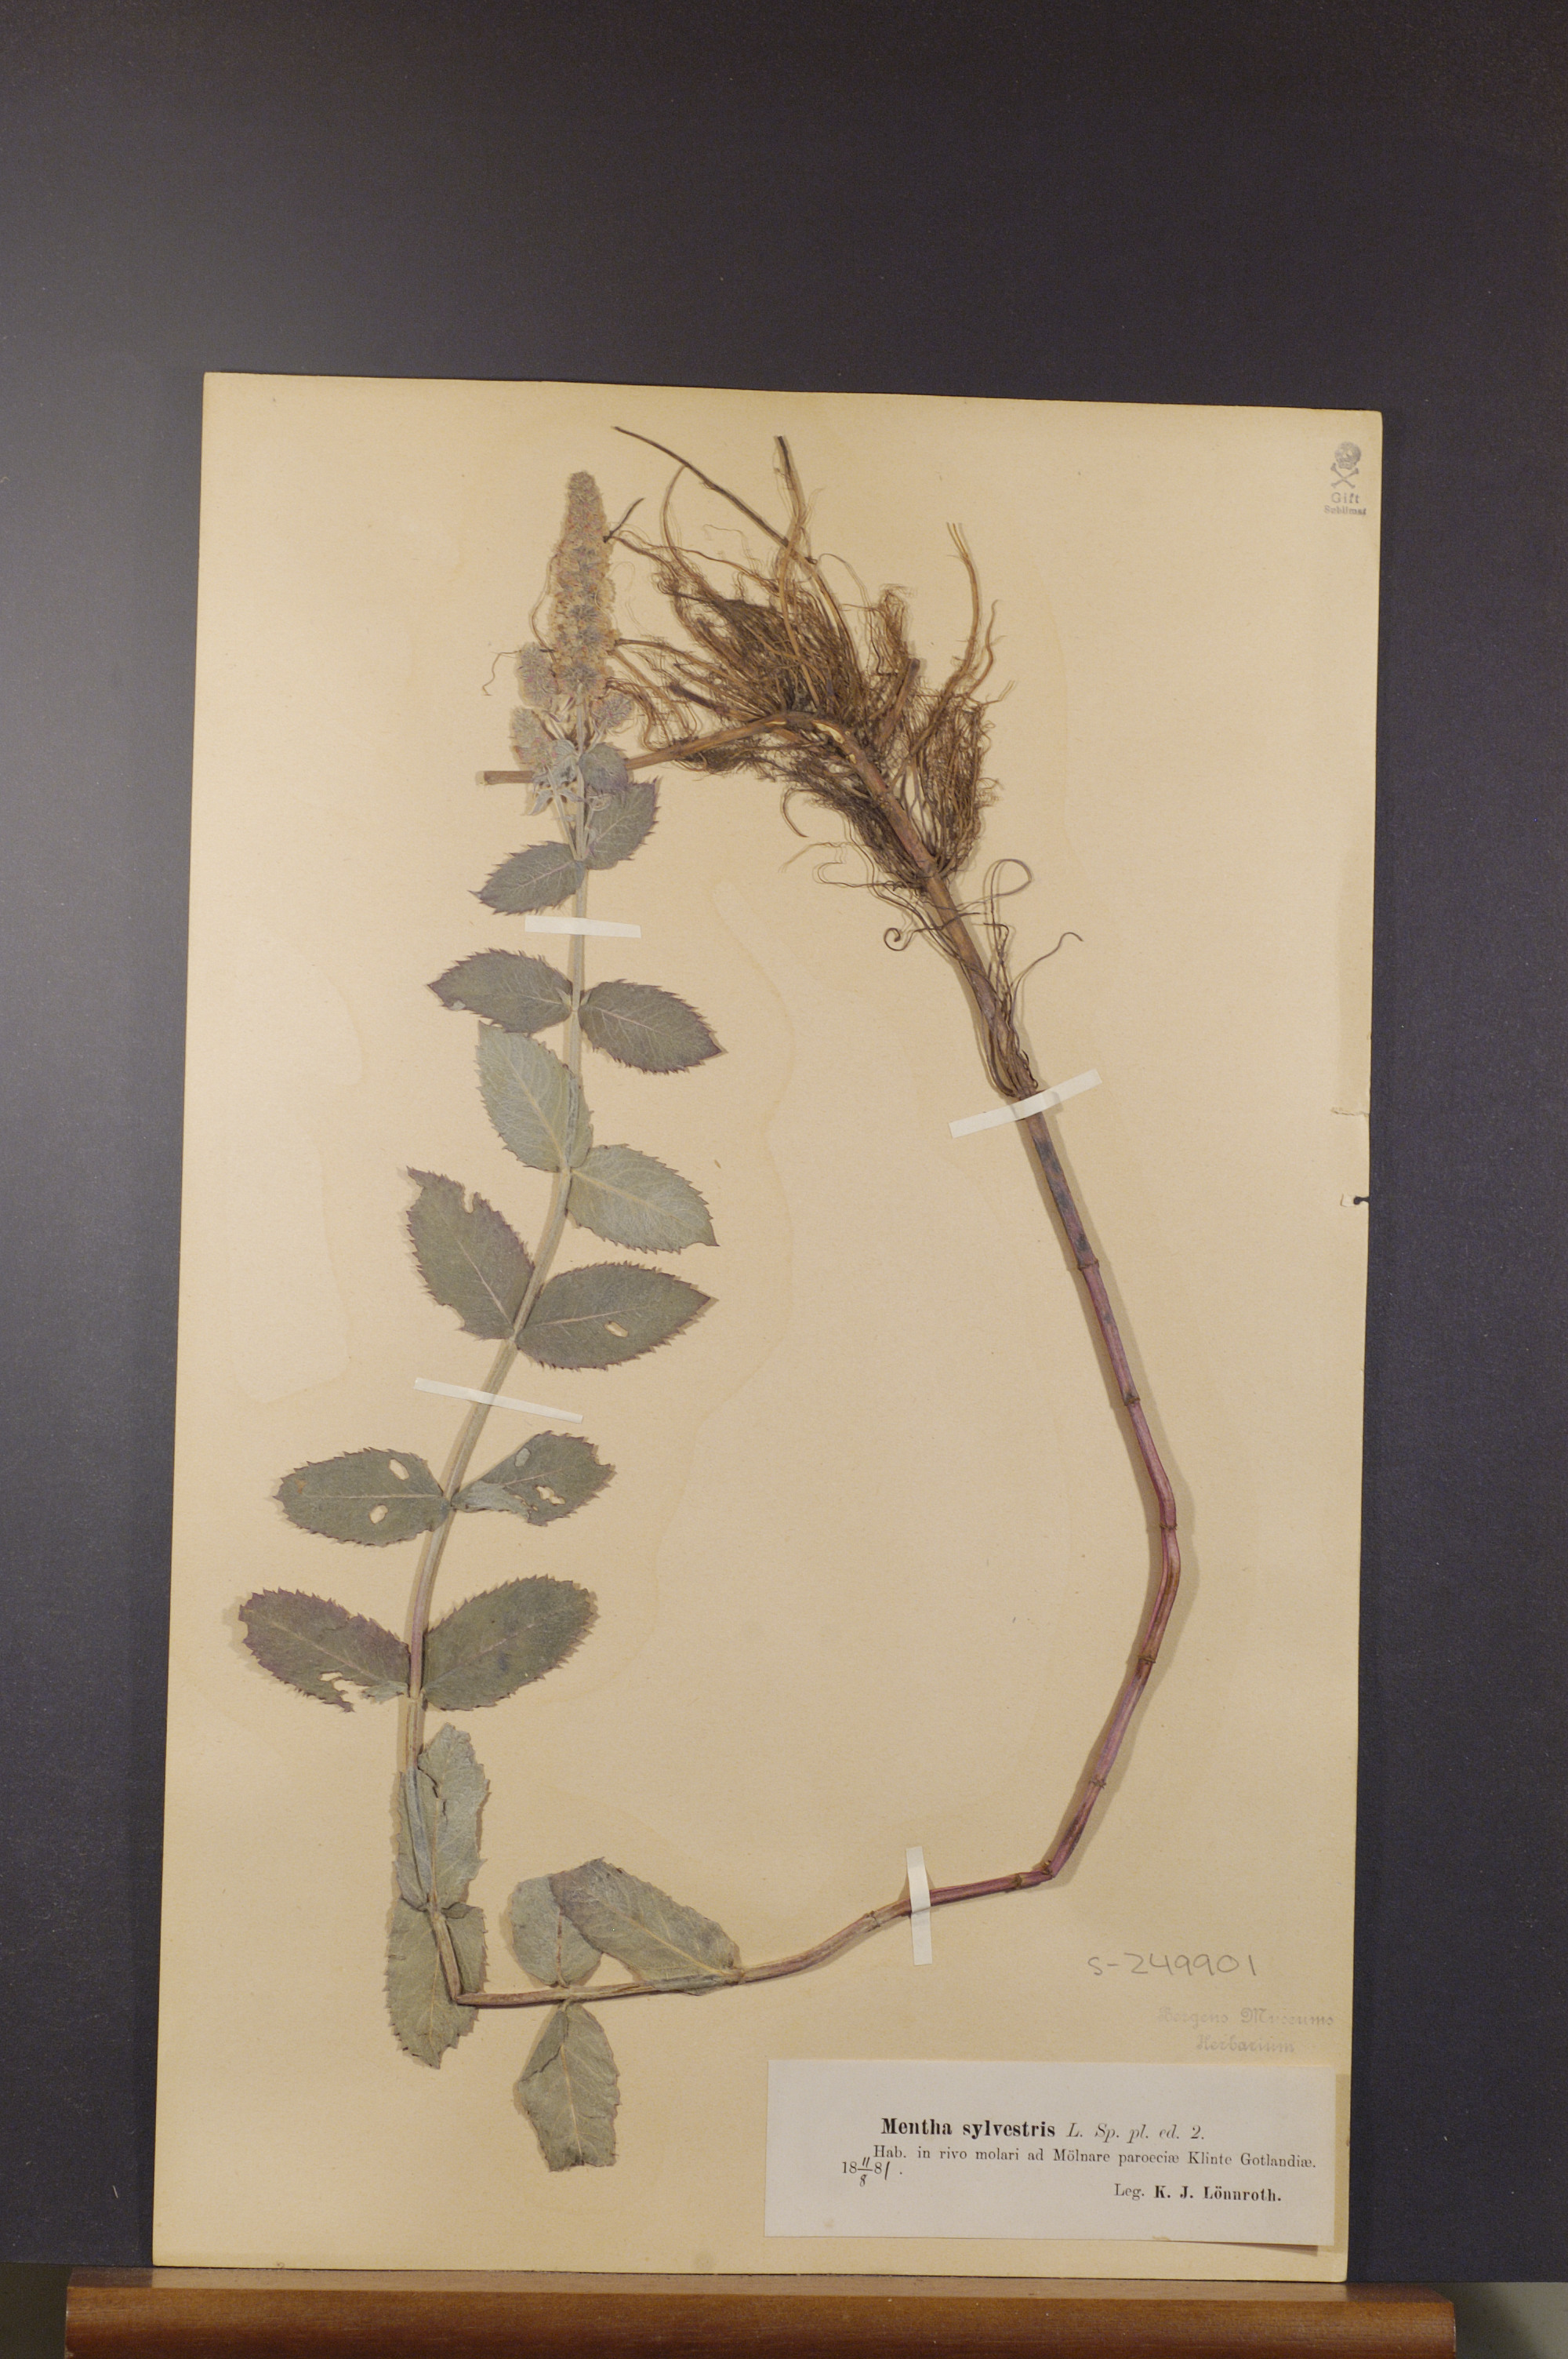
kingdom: Plantae
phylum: Tracheophyta
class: Magnoliopsida
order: Lamiales
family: Lamiaceae
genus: Mentha
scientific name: Mentha longifolia
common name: Horse mint
